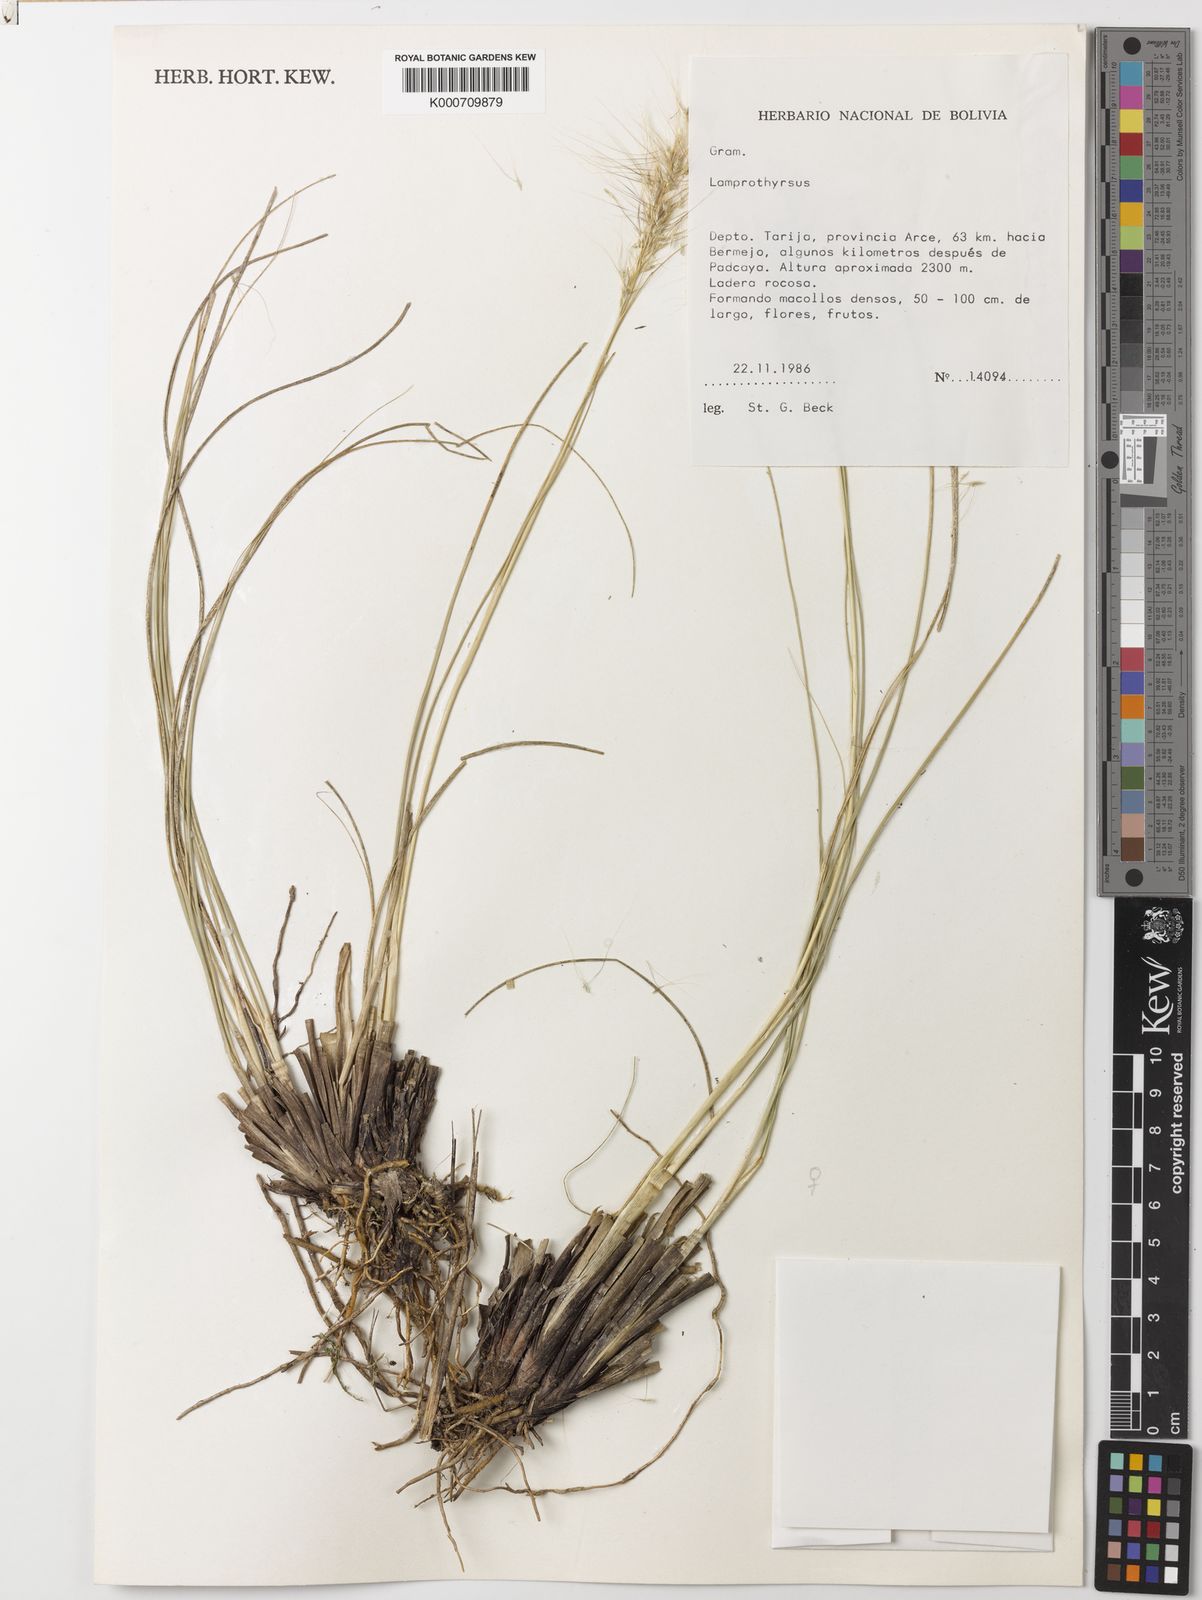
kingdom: Plantae
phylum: Tracheophyta
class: Liliopsida
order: Poales
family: Poaceae
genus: Cortaderia
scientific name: Cortaderia hieronymi
